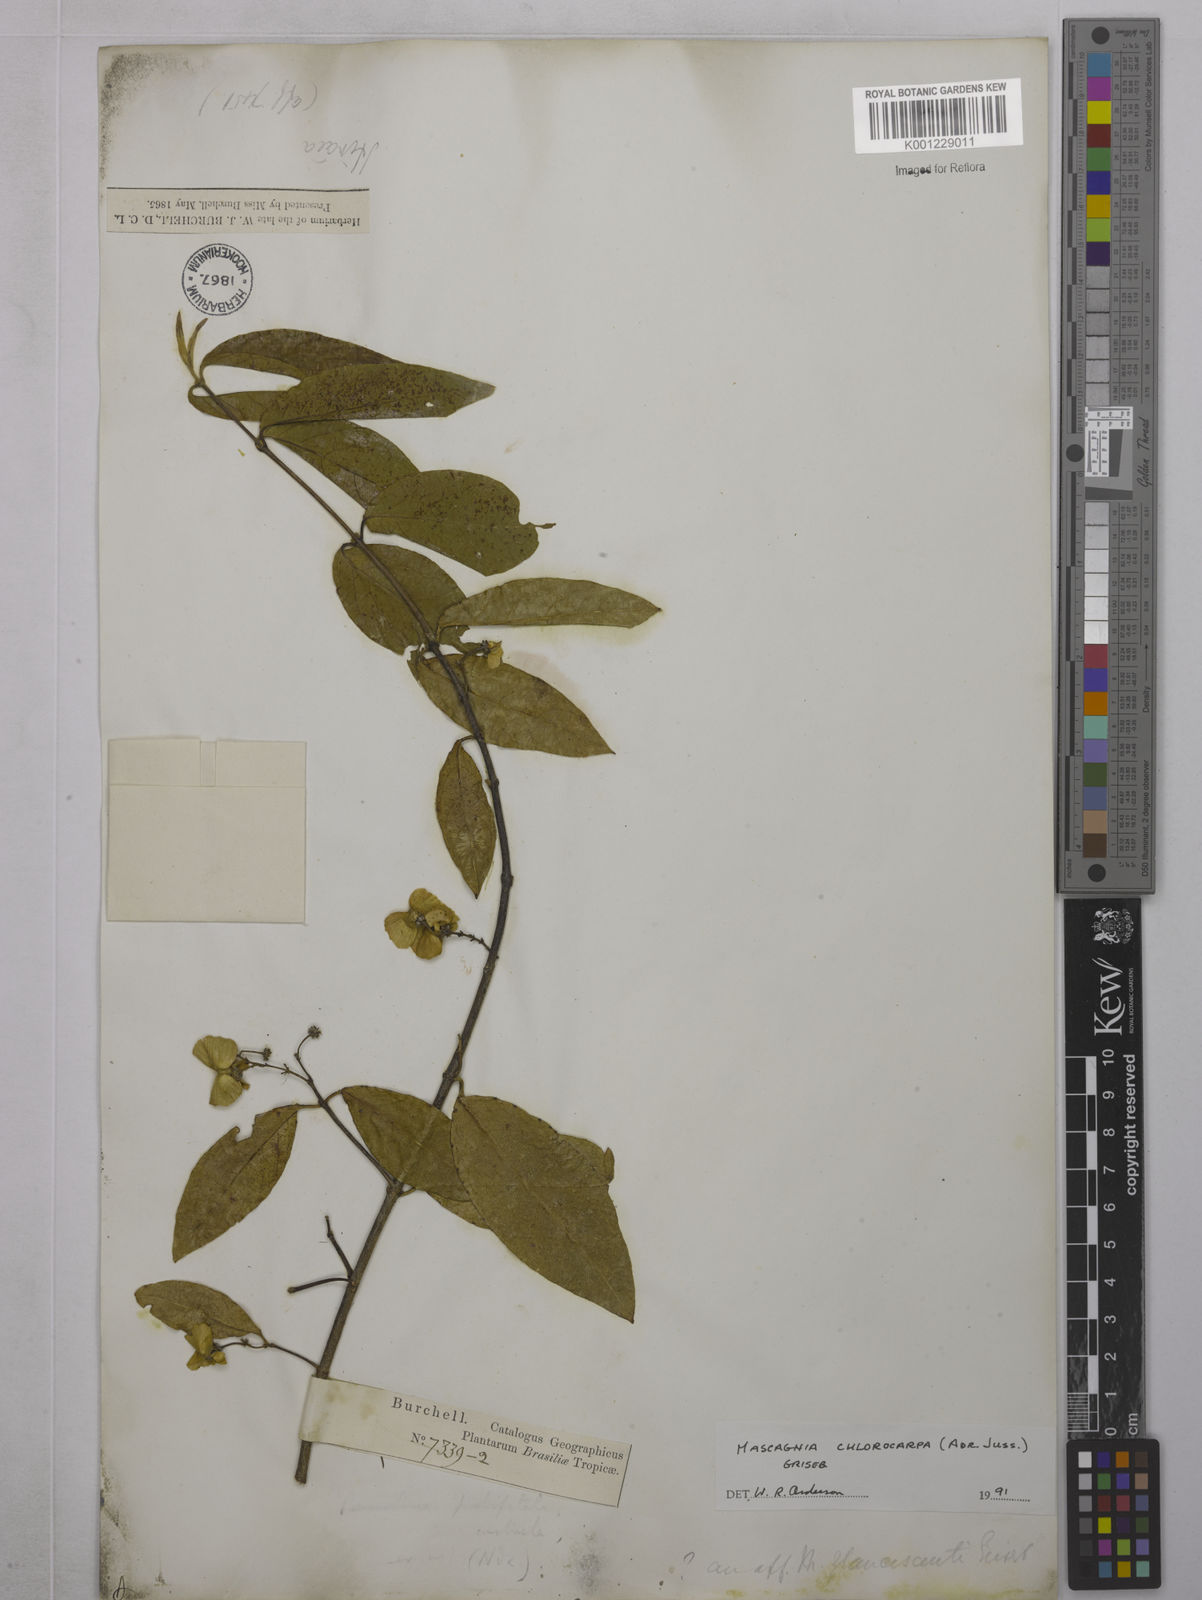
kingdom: Plantae
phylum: Tracheophyta
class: Magnoliopsida
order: Malpighiales
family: Malpighiaceae
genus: Carolus
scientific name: Carolus chlorocarpus
